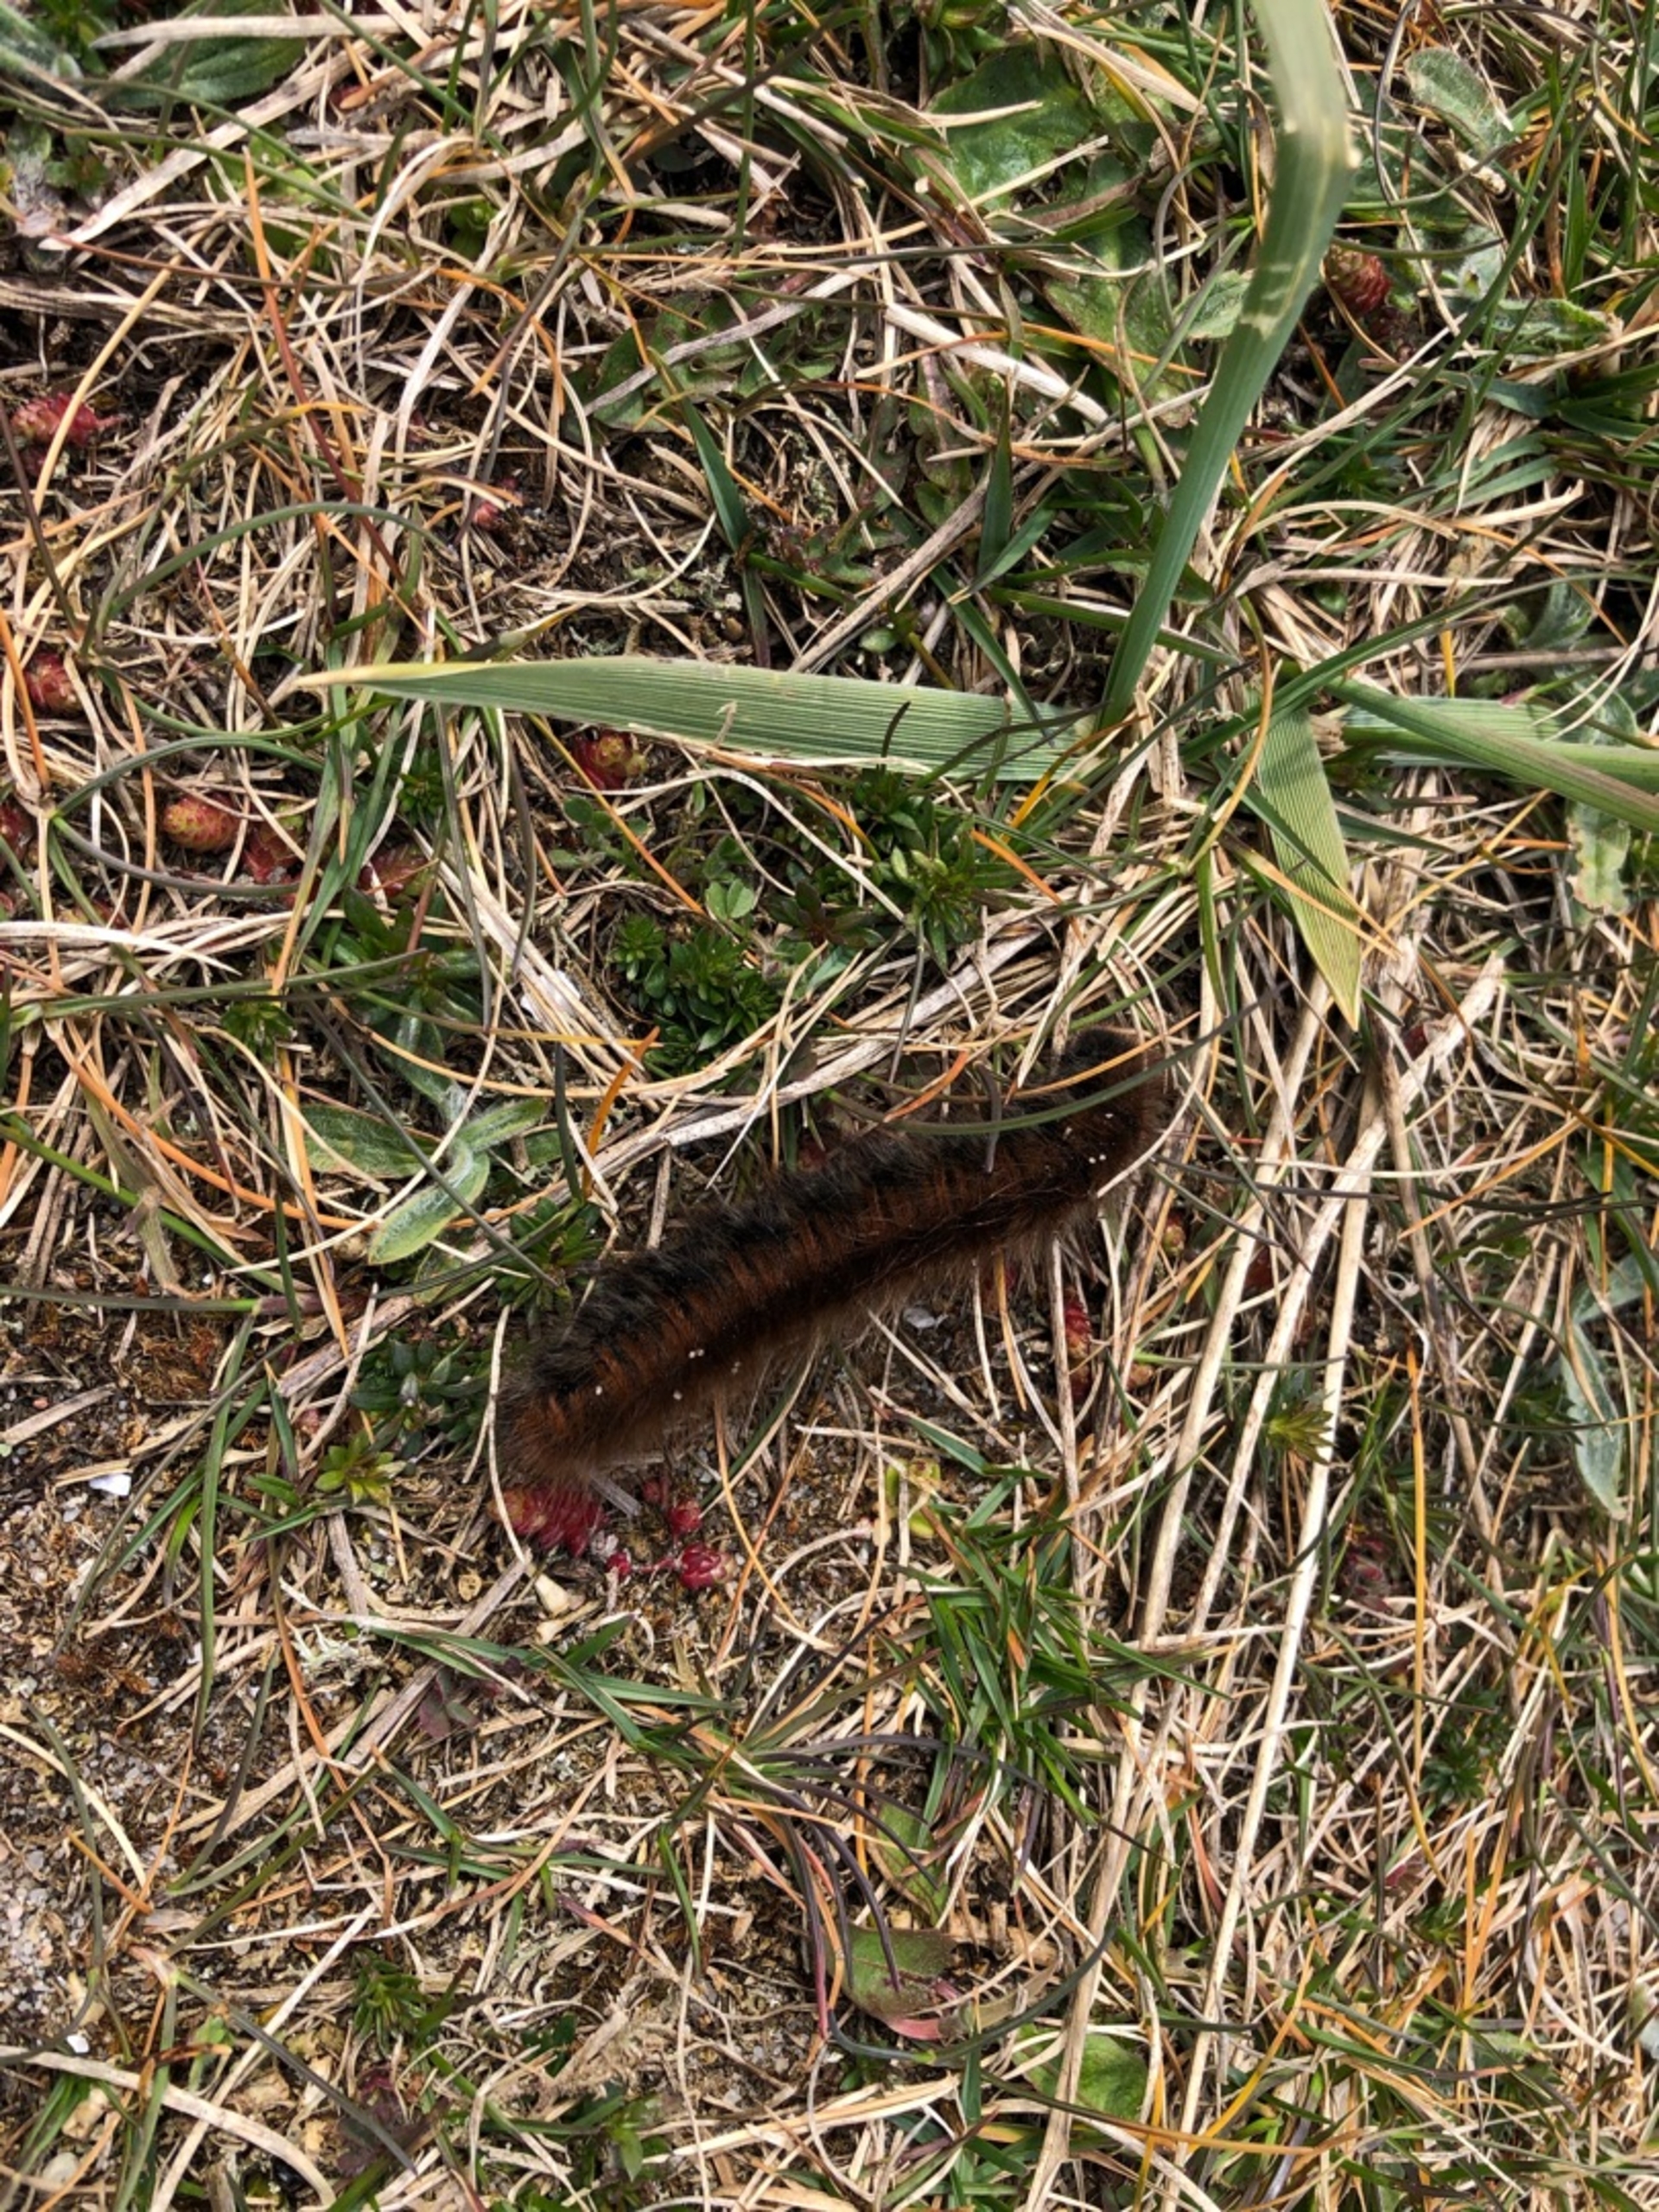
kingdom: Animalia
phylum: Arthropoda
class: Insecta
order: Lepidoptera
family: Lasiocampidae
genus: Macrothylacia
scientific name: Macrothylacia rubi
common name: Brombærspinder
